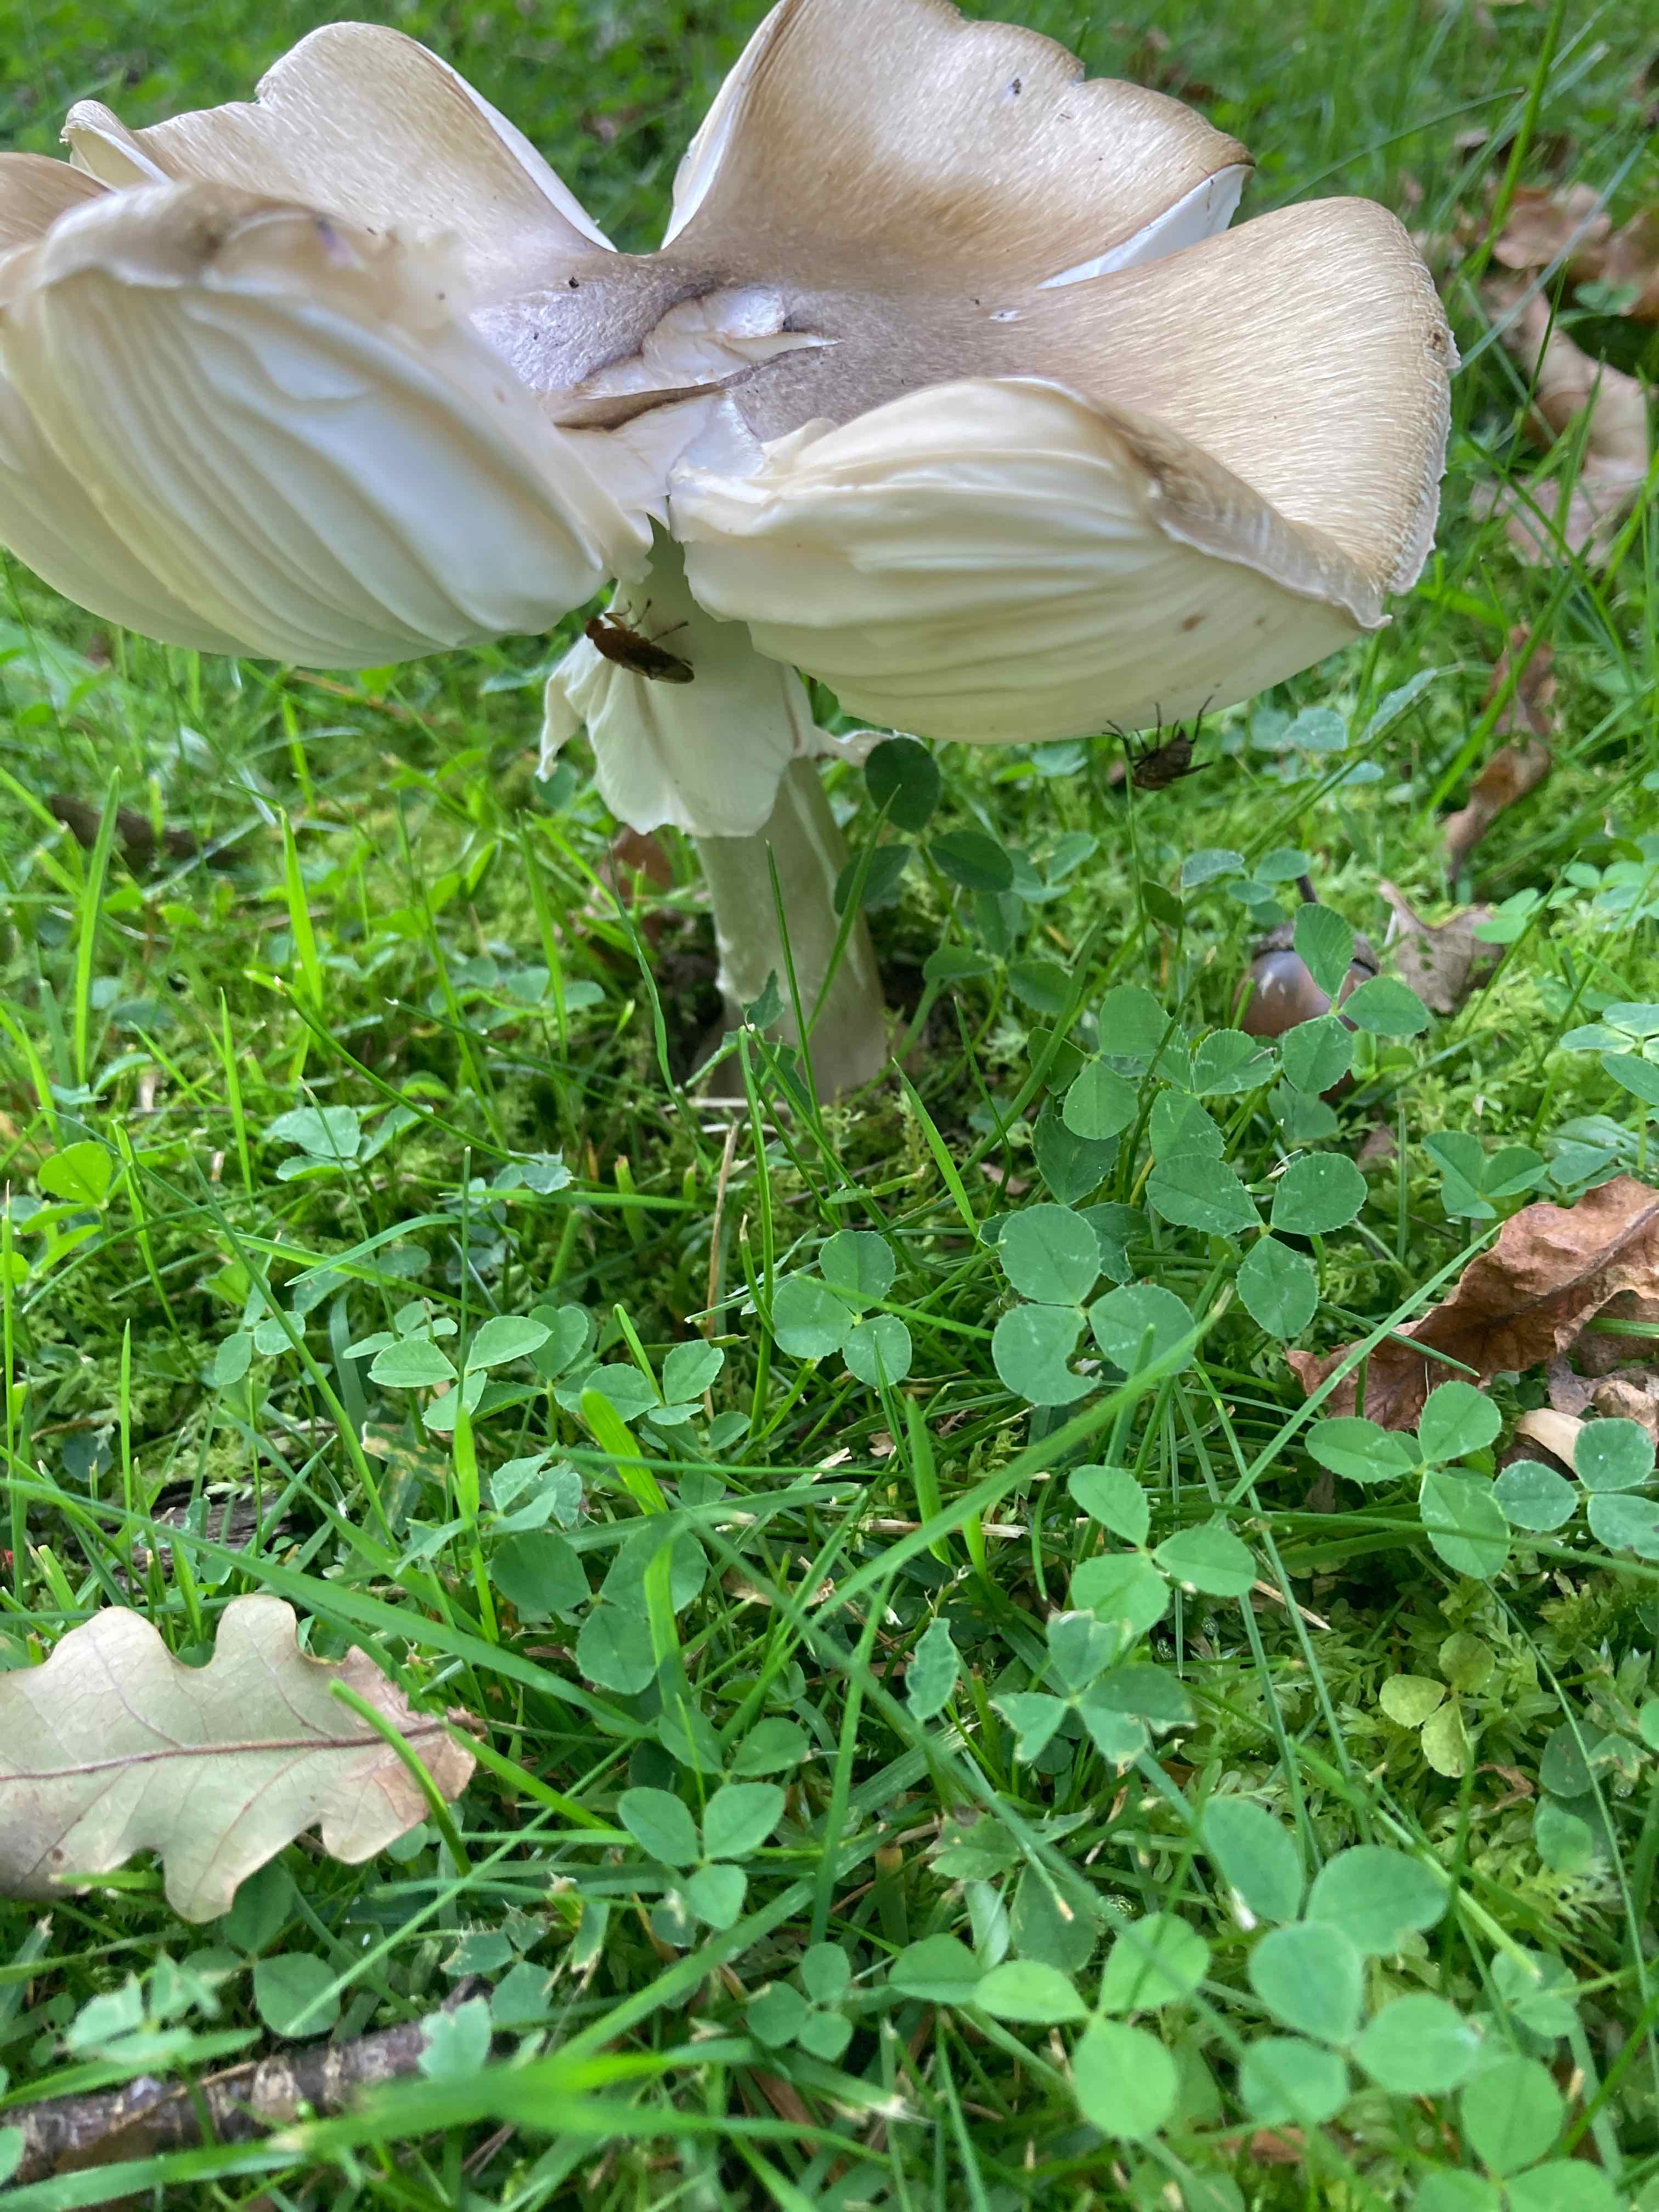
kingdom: Fungi
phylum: Basidiomycota
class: Agaricomycetes
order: Agaricales
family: Amanitaceae
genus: Amanita
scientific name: Amanita phalloides
